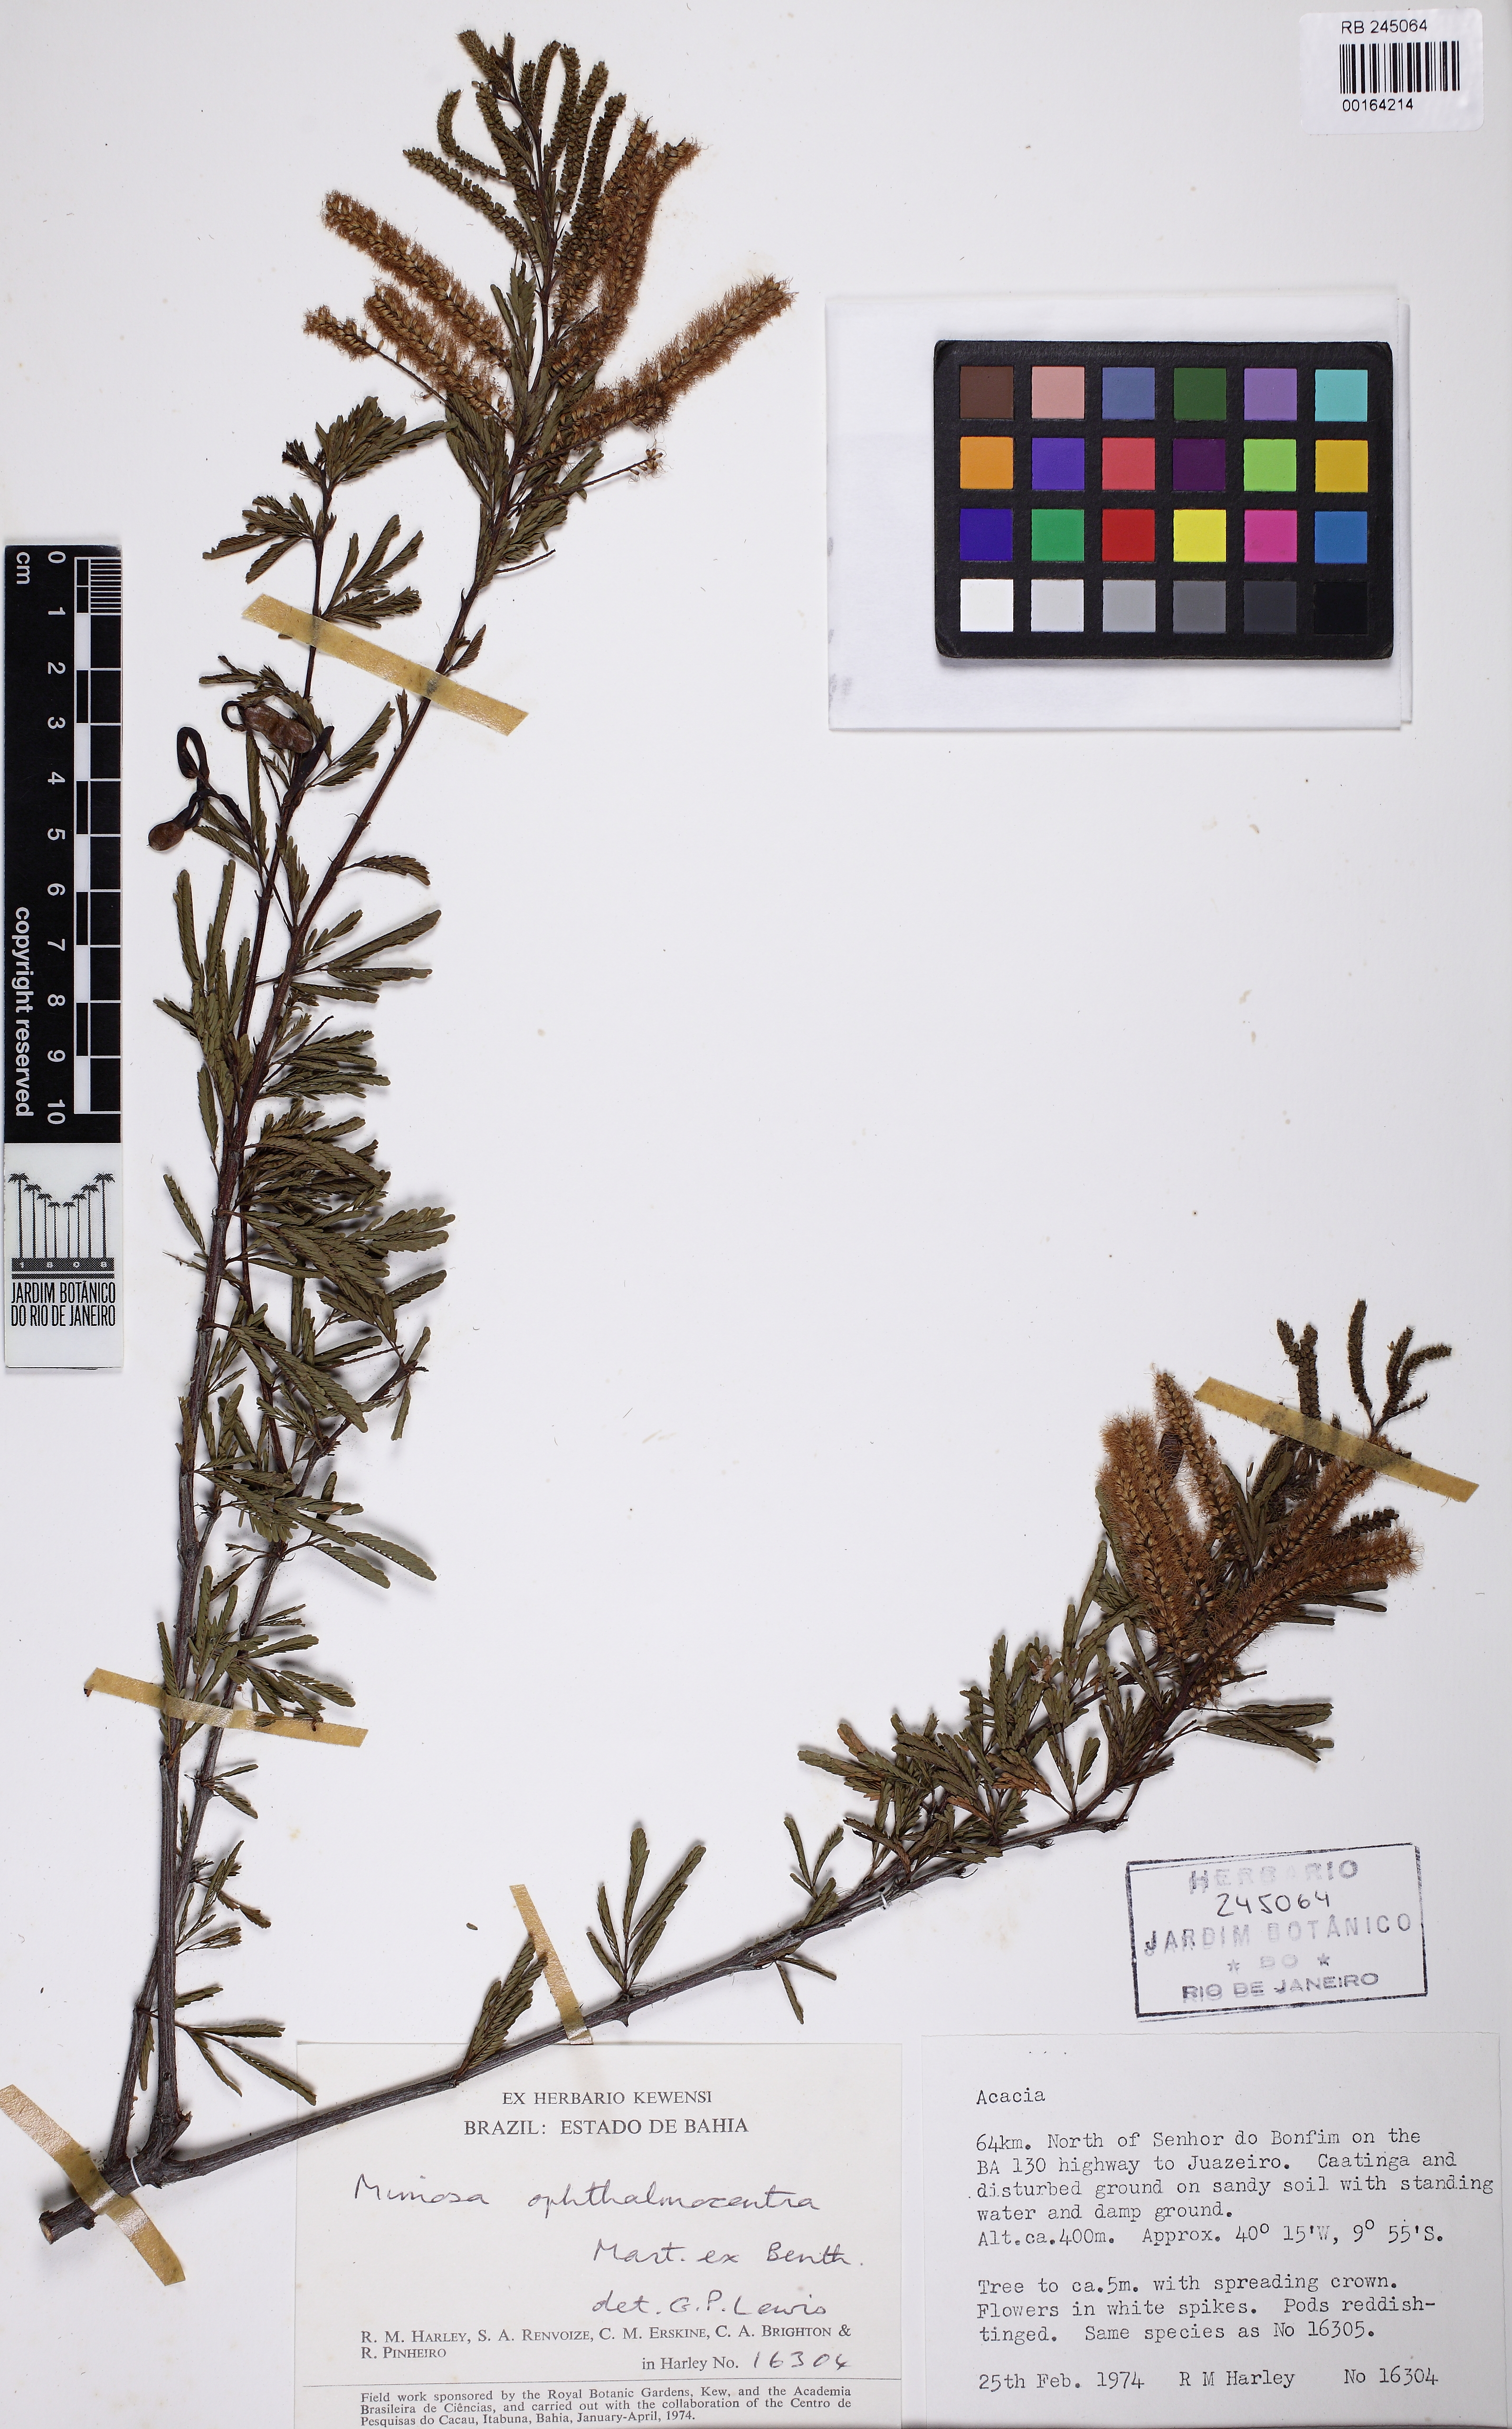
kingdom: Plantae
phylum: Tracheophyta
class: Magnoliopsida
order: Fabales
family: Fabaceae
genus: Mimosa
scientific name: Mimosa ophthalmocentra
